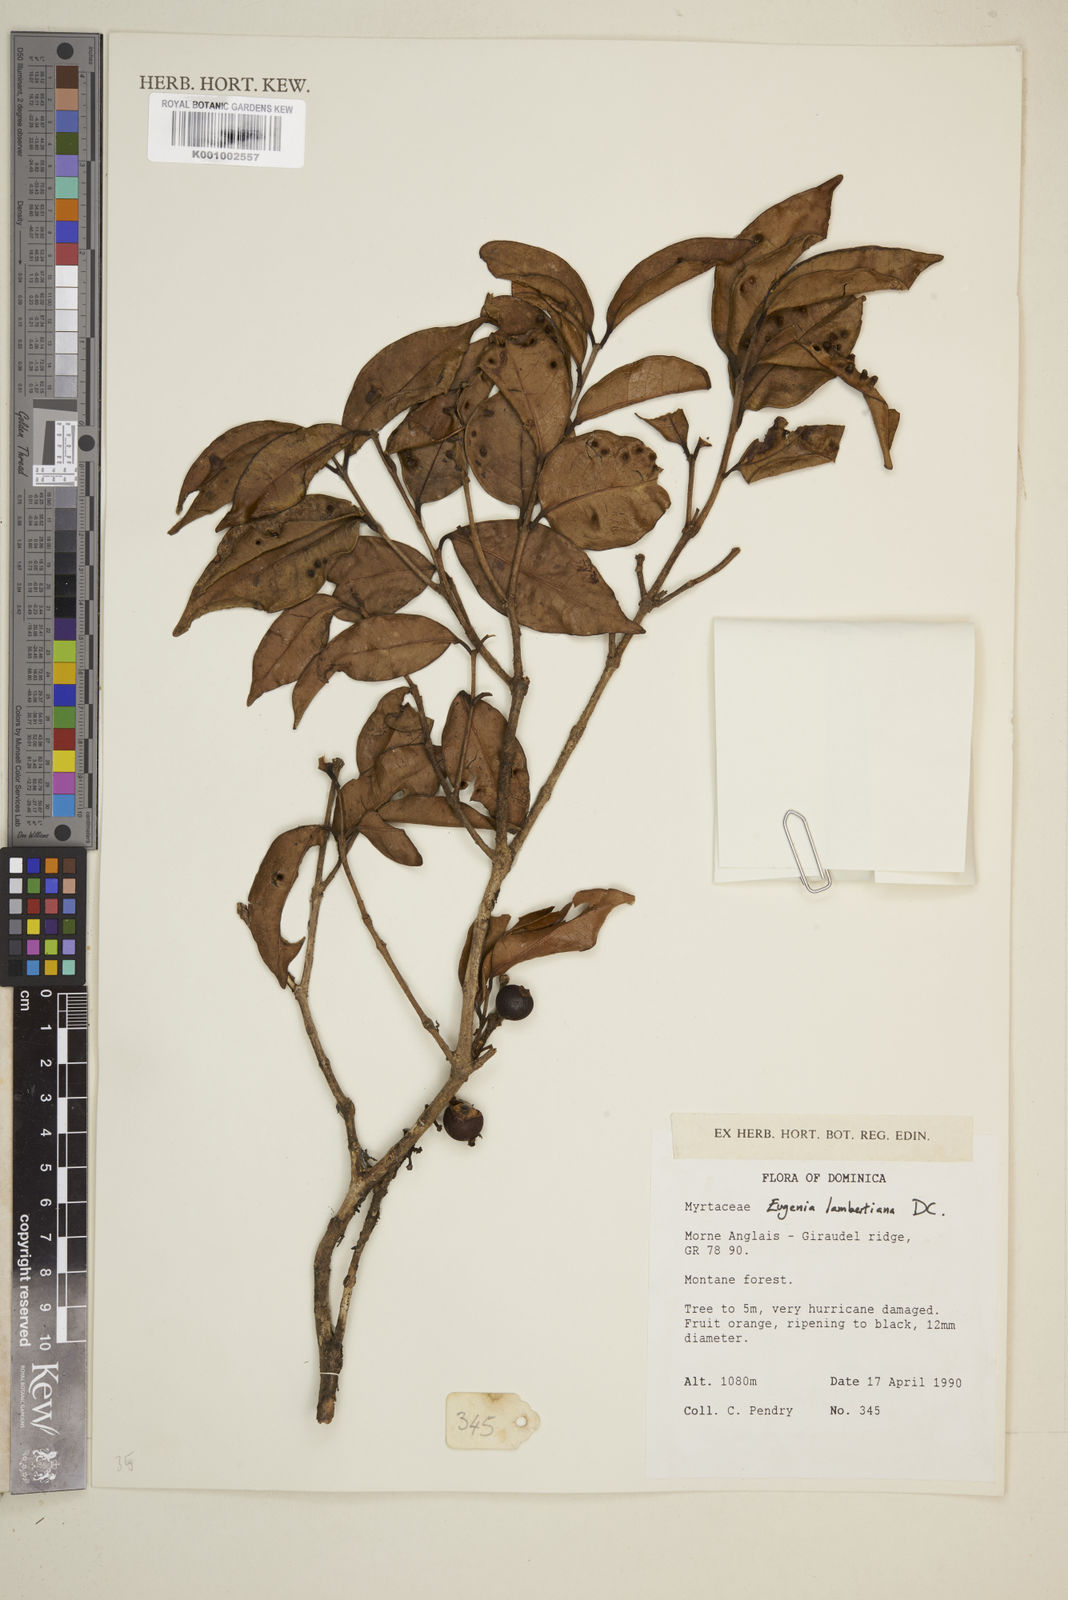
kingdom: Plantae
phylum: Tracheophyta
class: Magnoliopsida
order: Myrtales
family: Myrtaceae
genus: Eugenia
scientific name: Eugenia lambertiana
